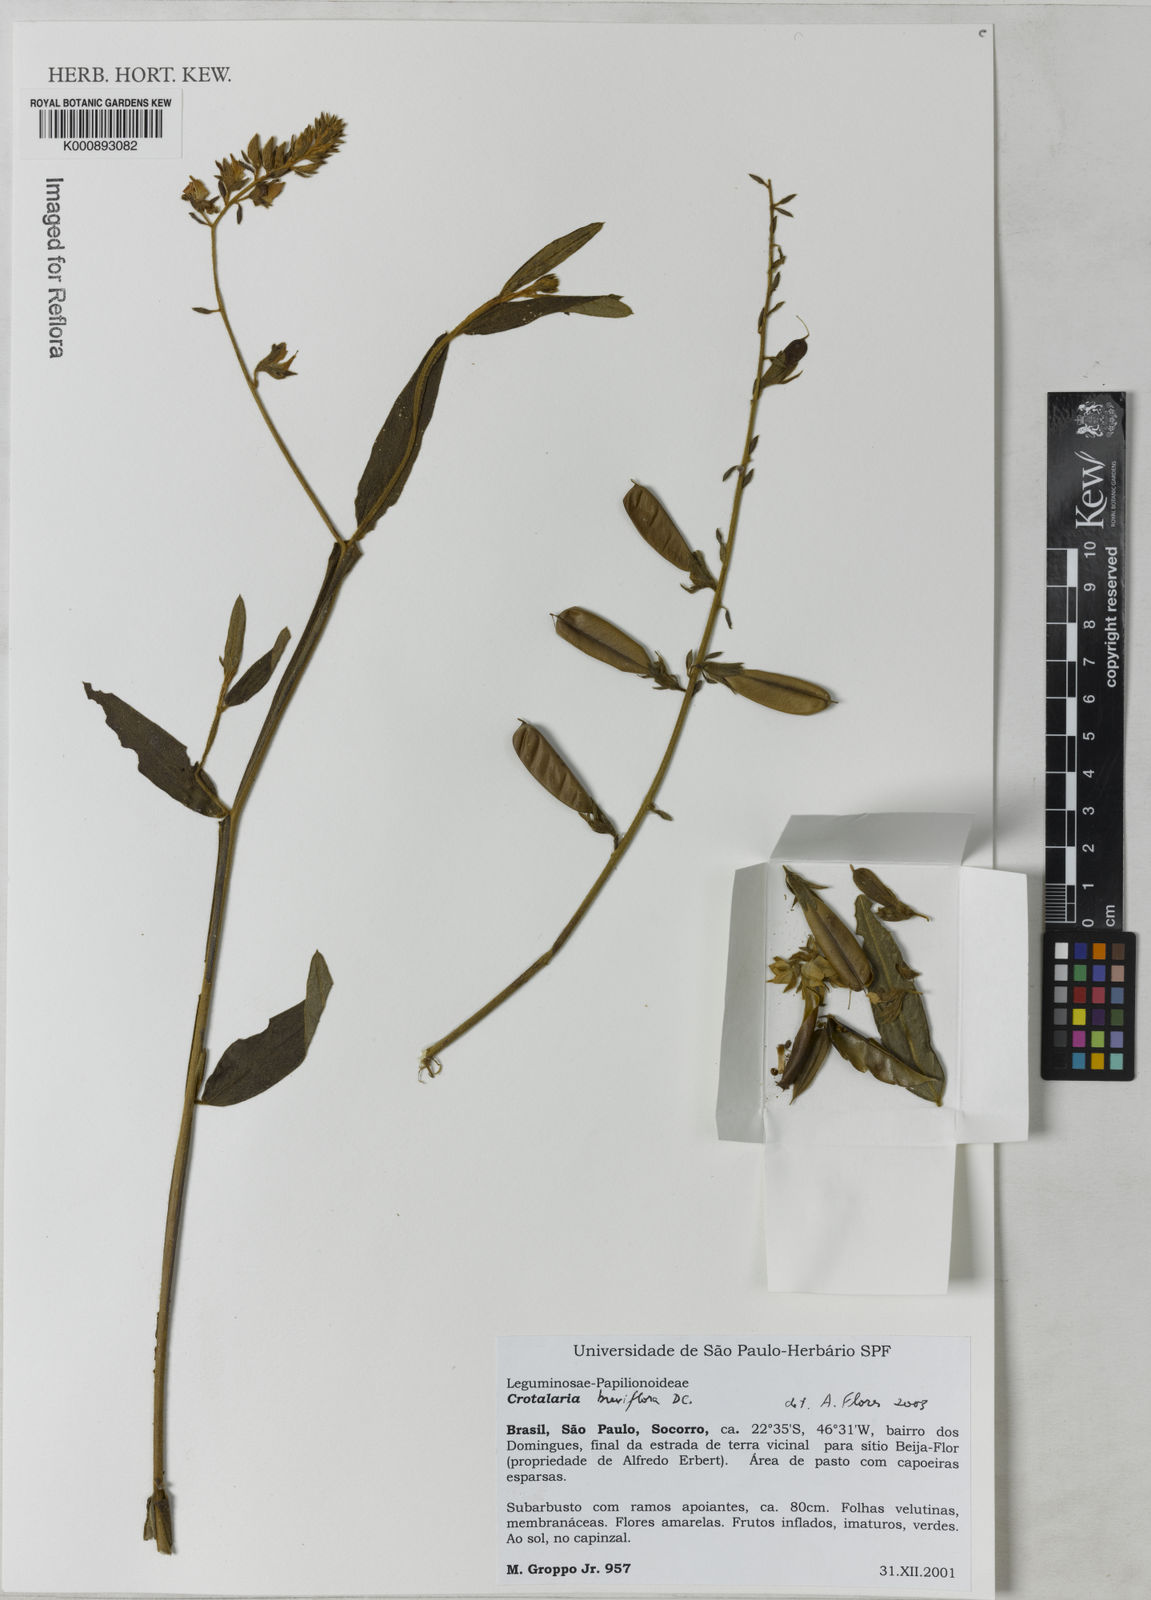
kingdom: Plantae
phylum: Tracheophyta
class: Magnoliopsida
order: Fabales
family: Fabaceae
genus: Crotalaria
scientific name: Crotalaria breviflora
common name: Short-flower crotalaria
